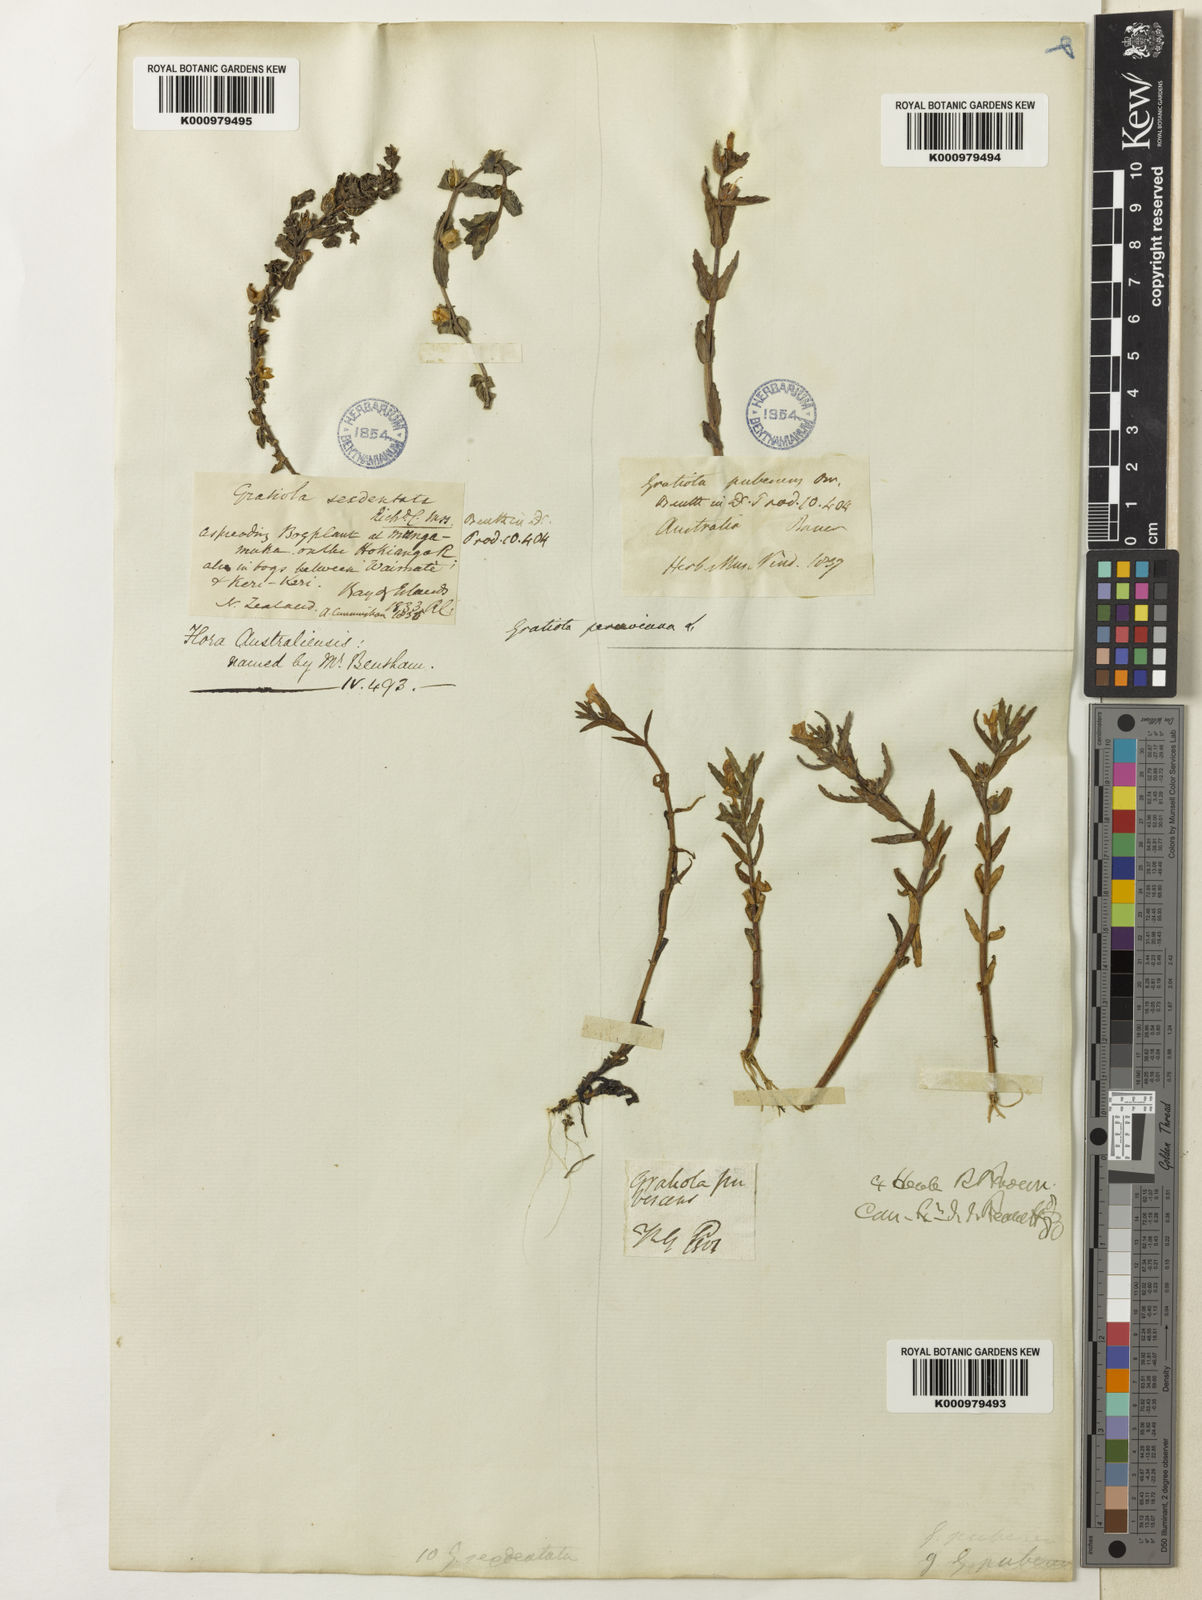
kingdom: Plantae
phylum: Tracheophyta
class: Magnoliopsida
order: Lamiales
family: Plantaginaceae
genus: Gratiola
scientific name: Gratiola peruviana
